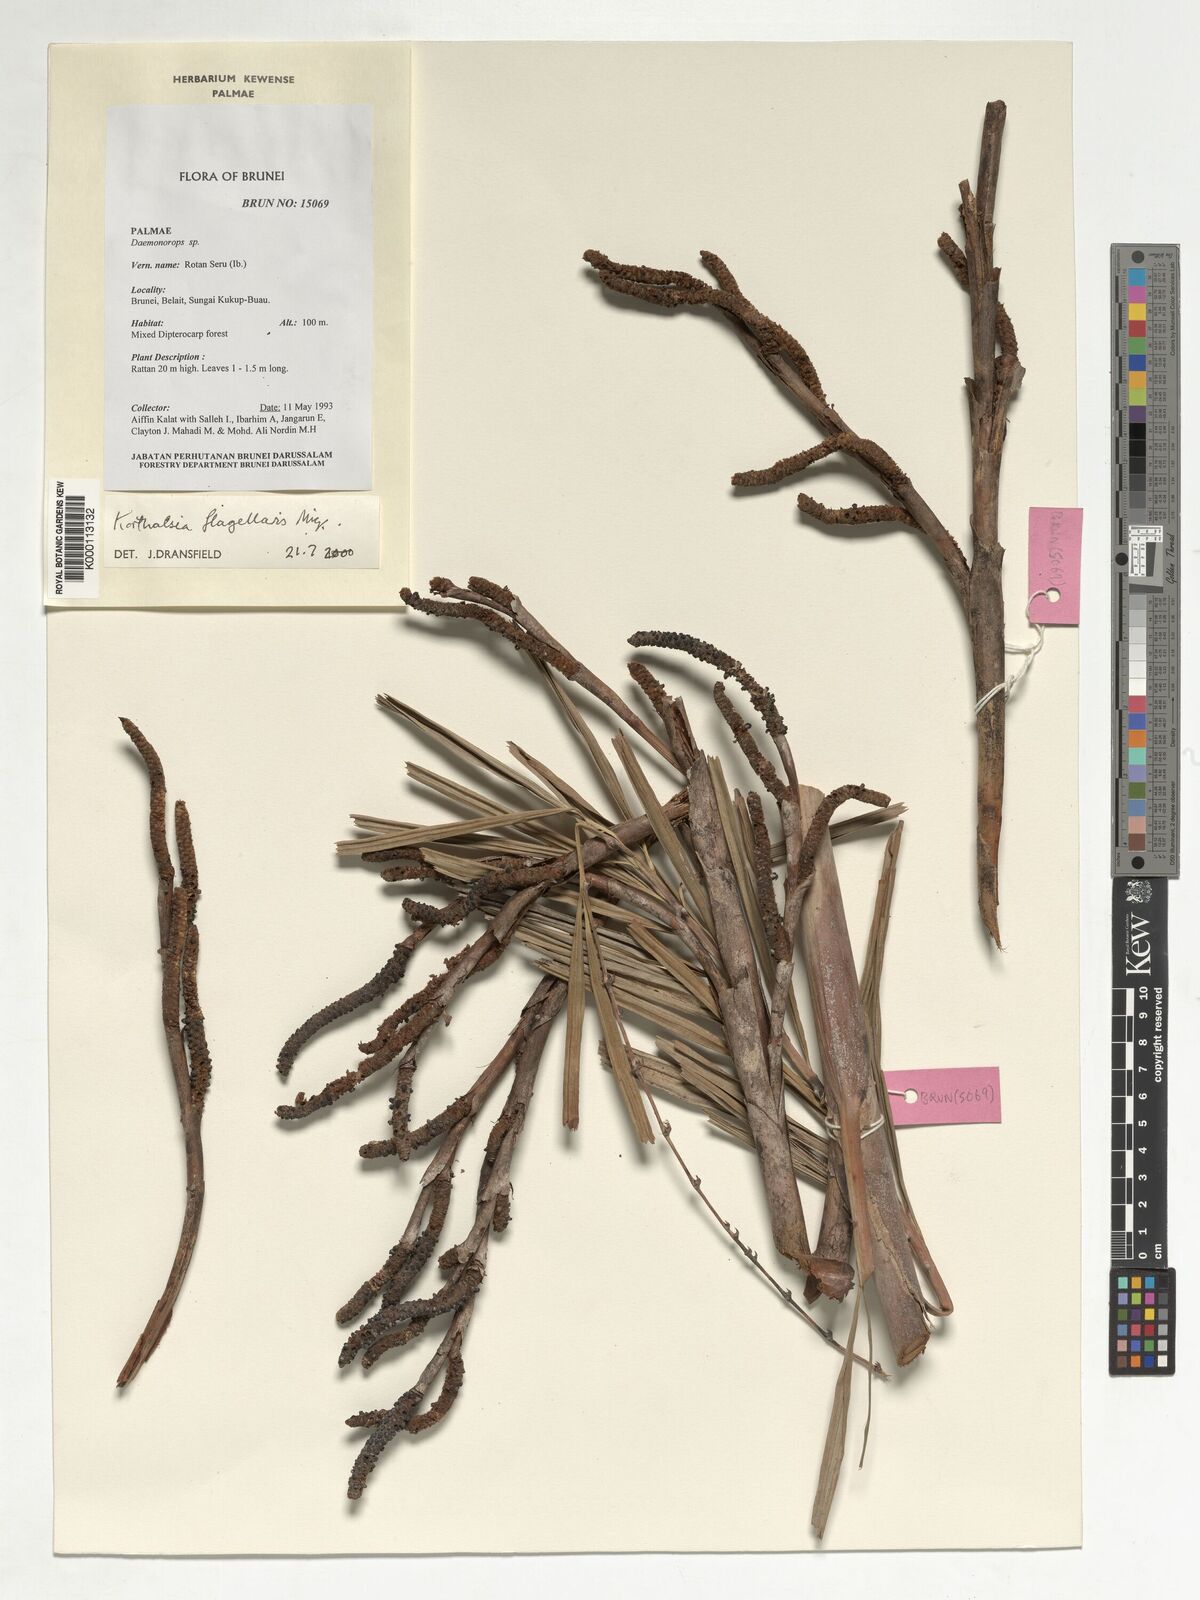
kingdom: Plantae
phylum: Tracheophyta
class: Liliopsida
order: Arecales
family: Arecaceae
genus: Korthalsia
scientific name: Korthalsia flagellaris
